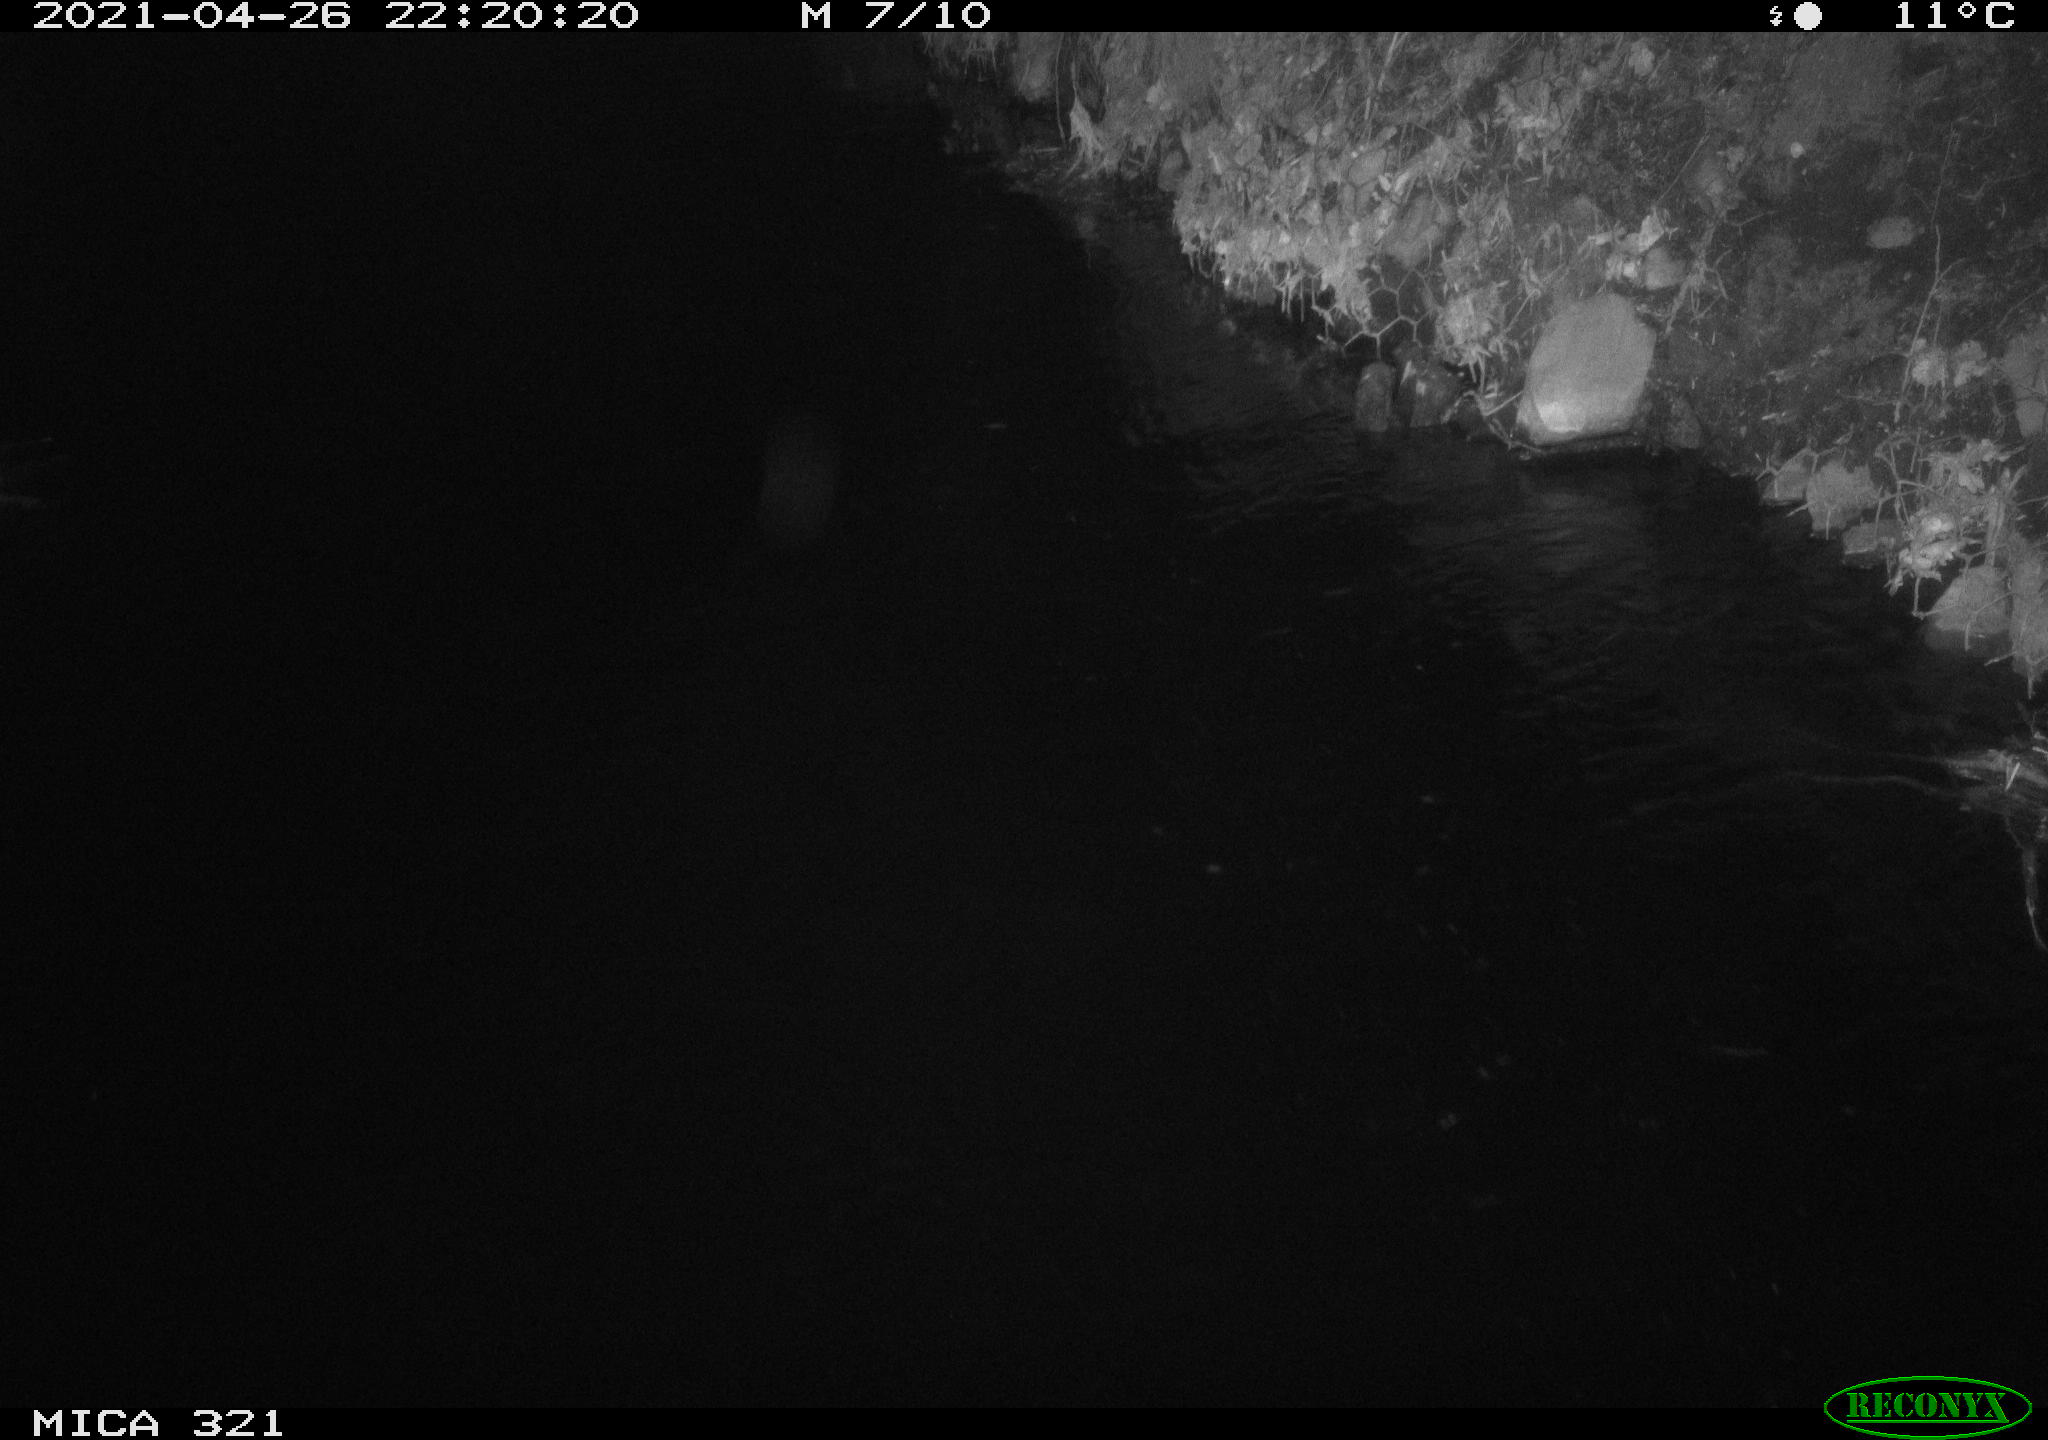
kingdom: Animalia
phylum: Chordata
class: Aves
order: Anseriformes
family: Anatidae
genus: Anas
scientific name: Anas
